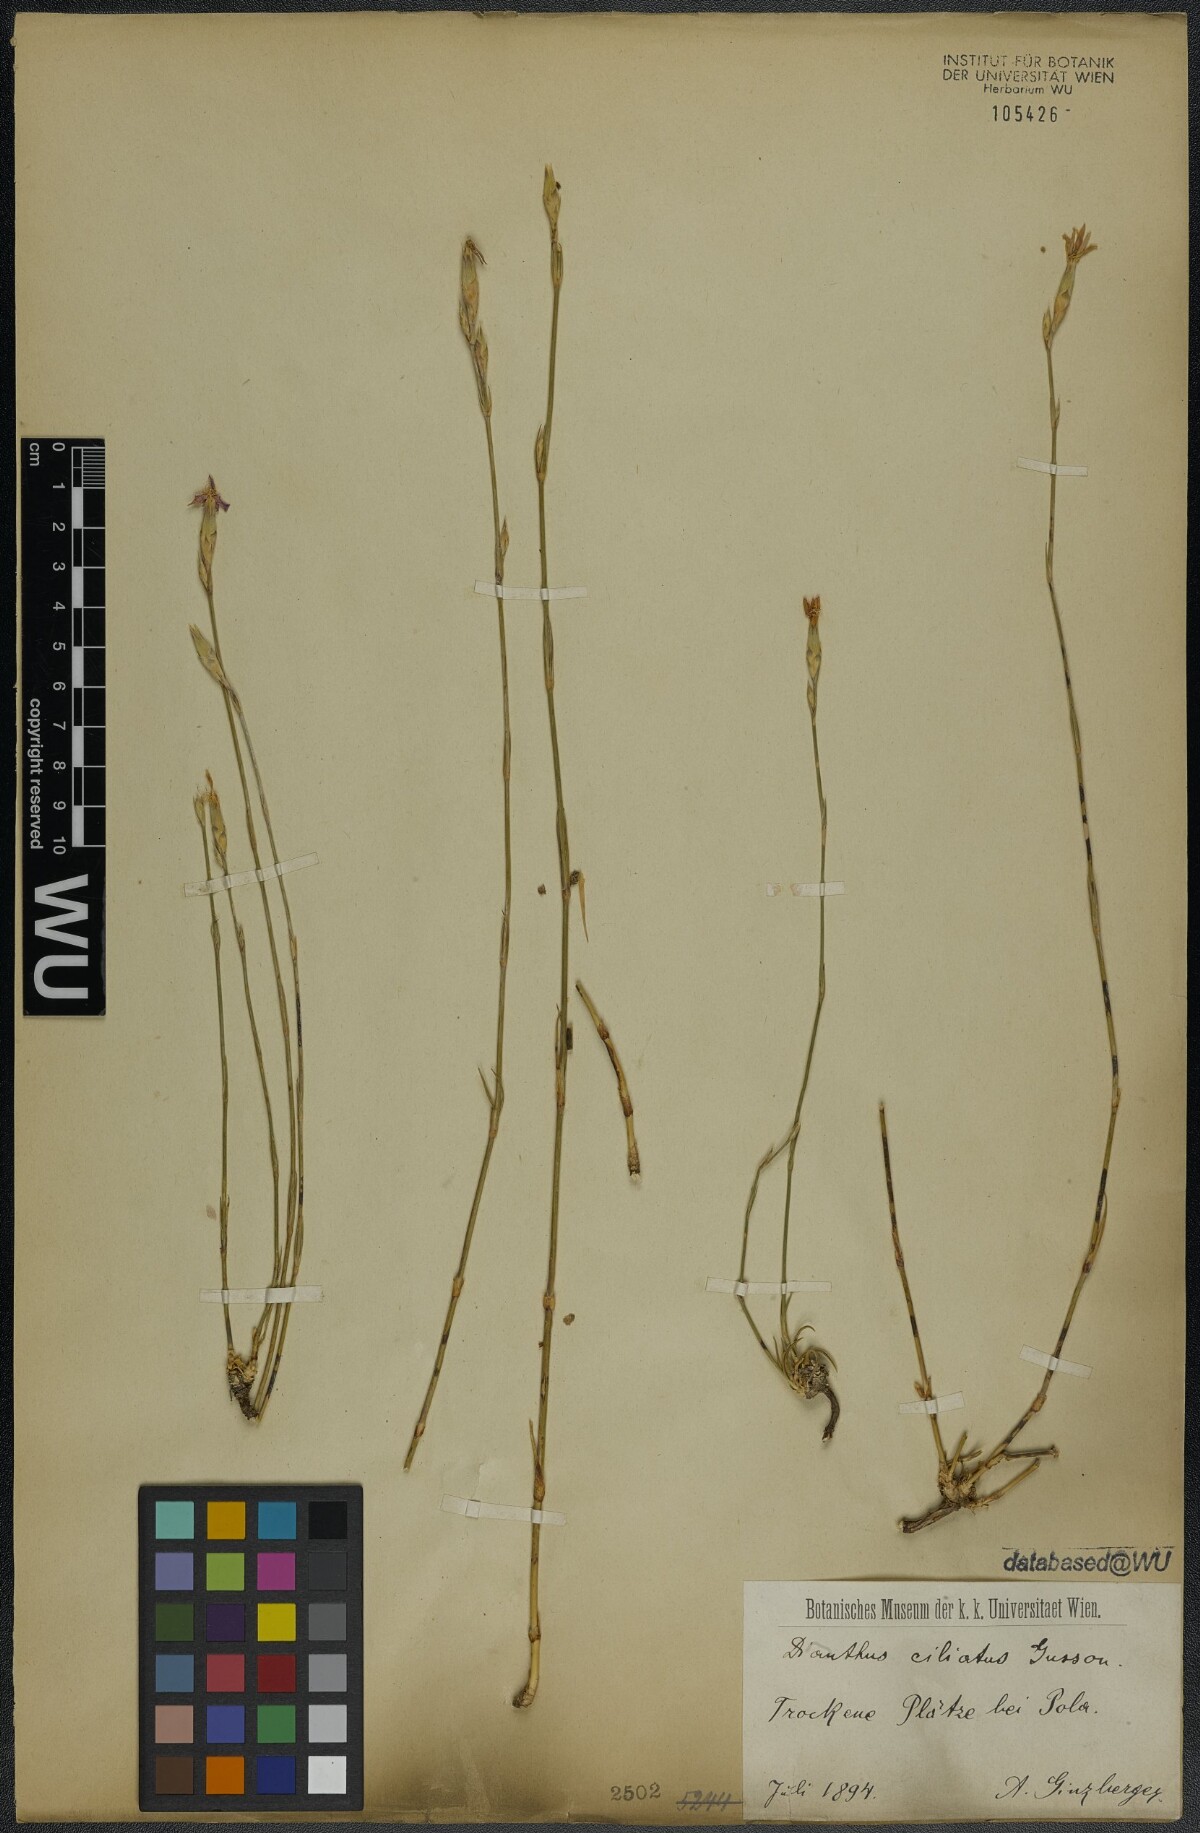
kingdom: Plantae
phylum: Tracheophyta
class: Magnoliopsida
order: Caryophyllales
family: Caryophyllaceae
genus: Dianthus
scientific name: Dianthus ciliatus
